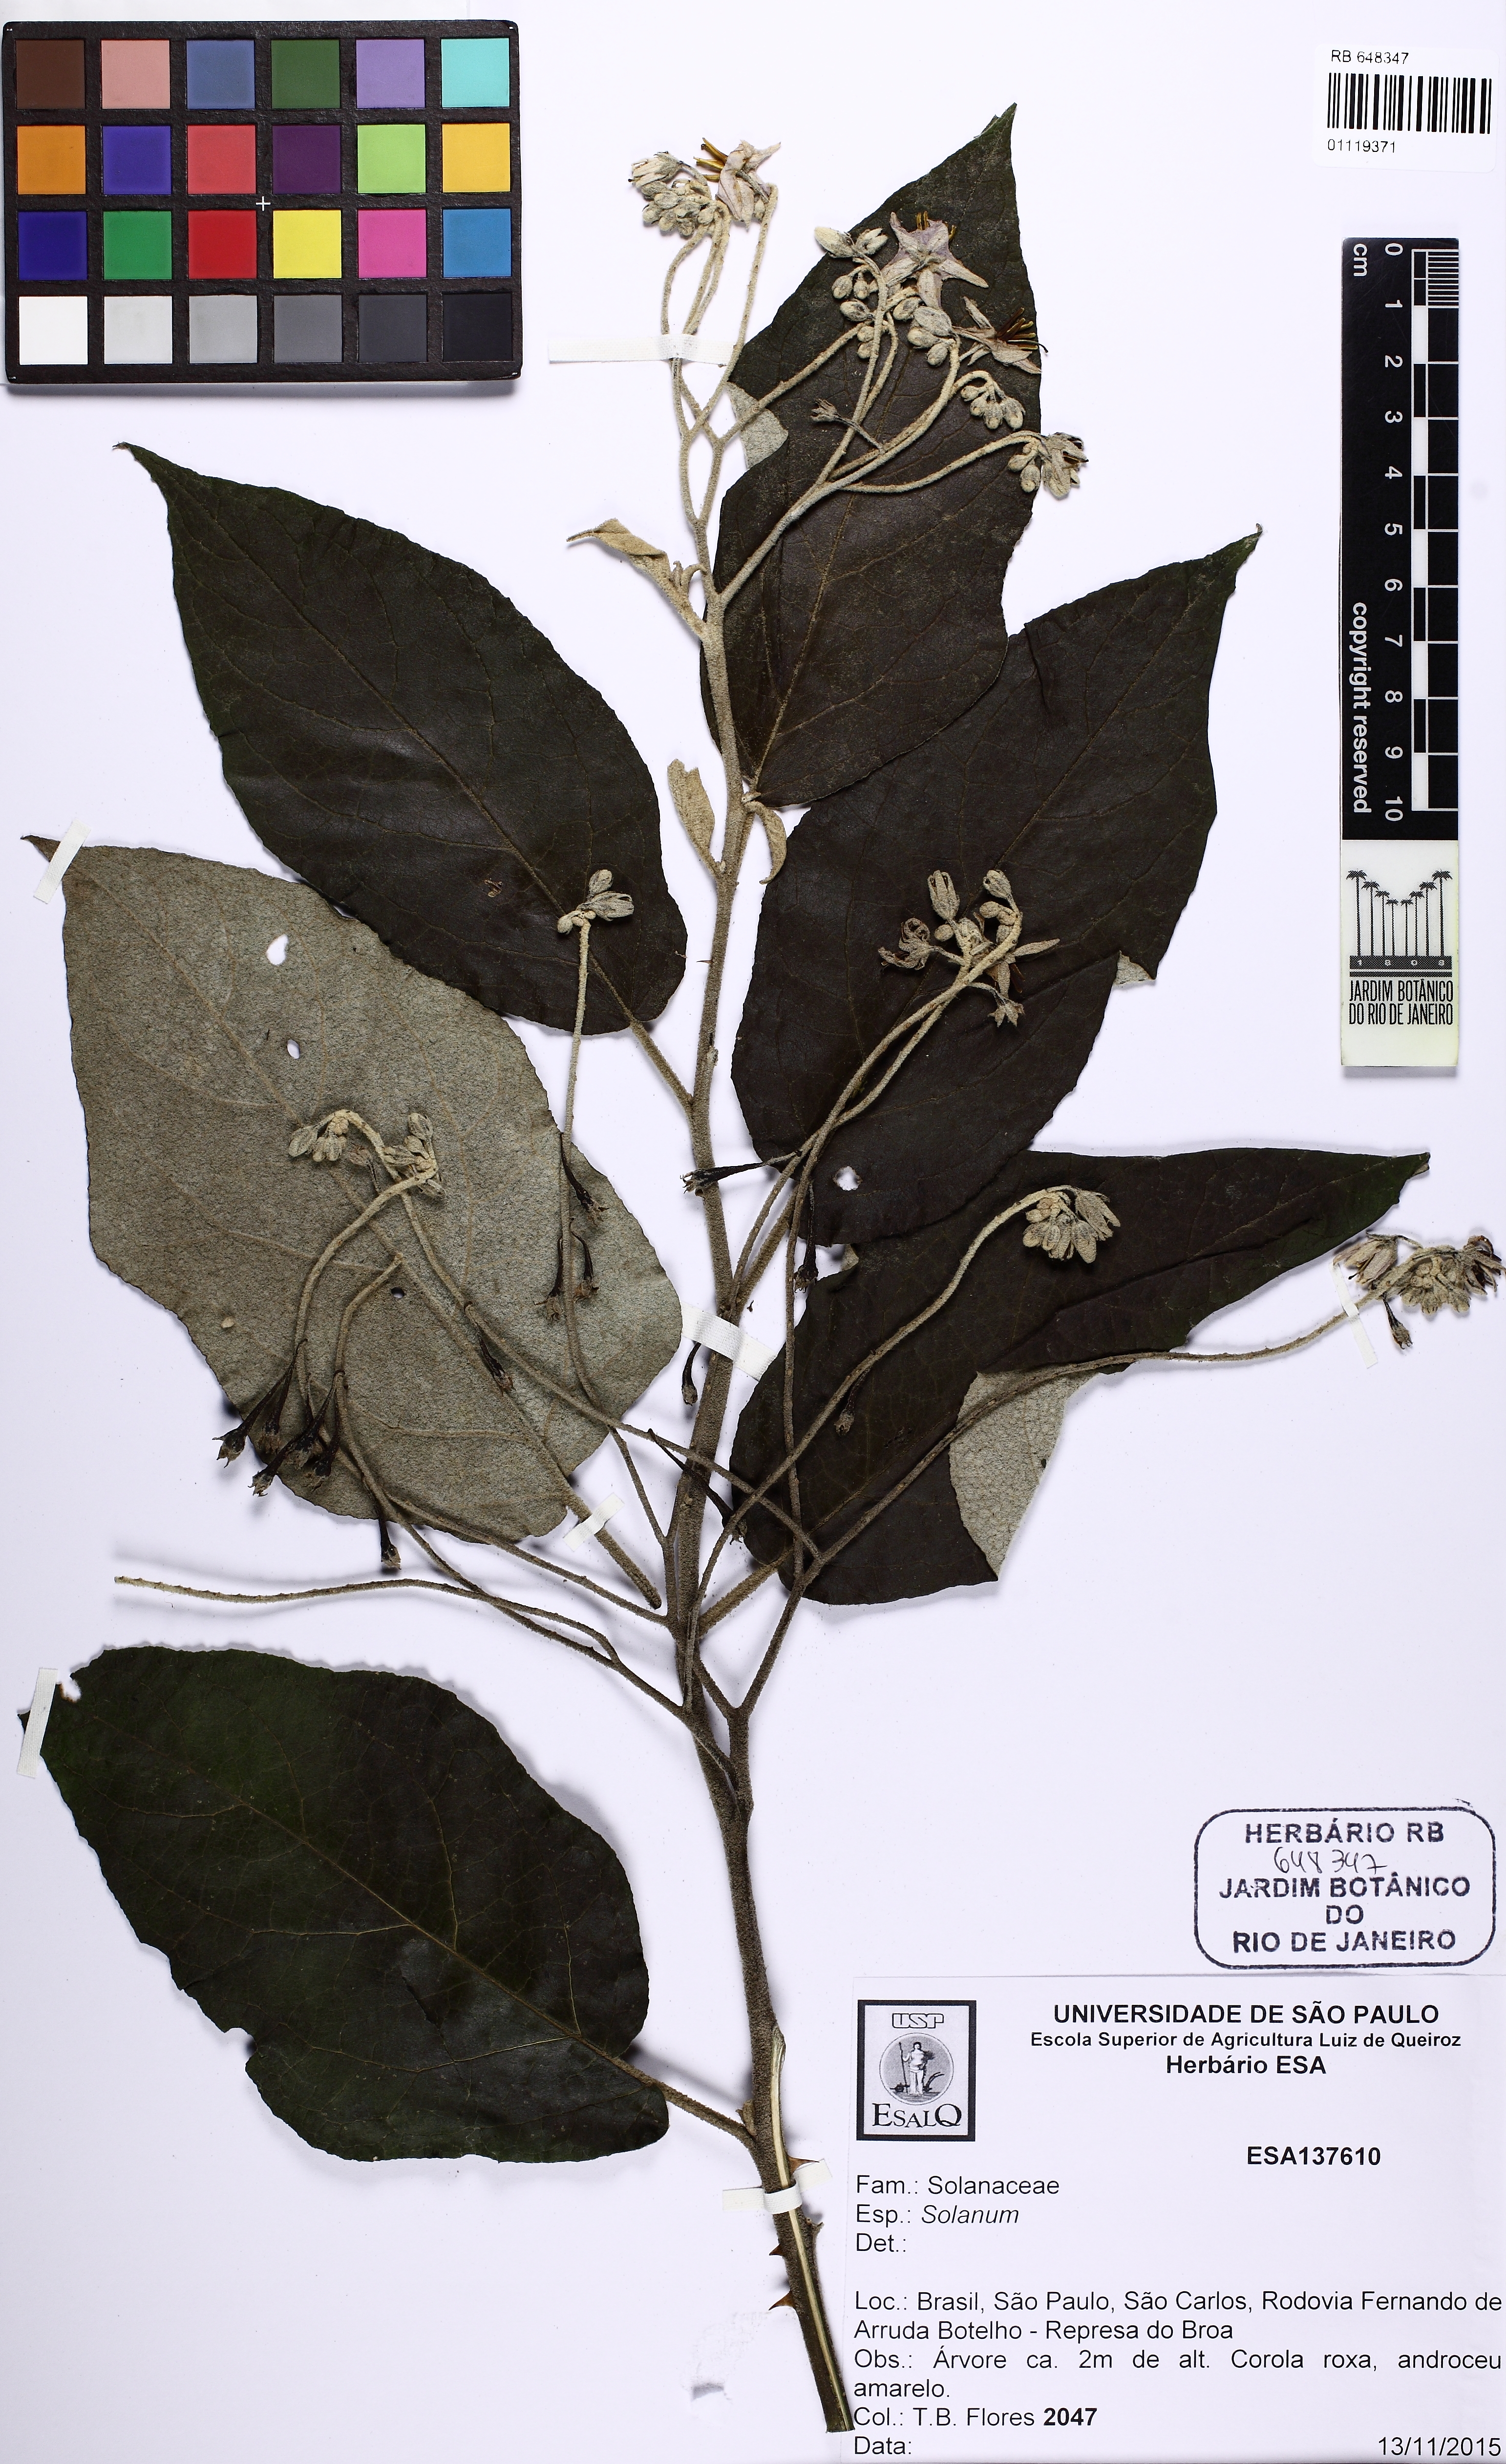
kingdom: Plantae
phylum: Tracheophyta
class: Magnoliopsida
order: Solanales
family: Solanaceae
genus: Solanum
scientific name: Solanum paniculatum
